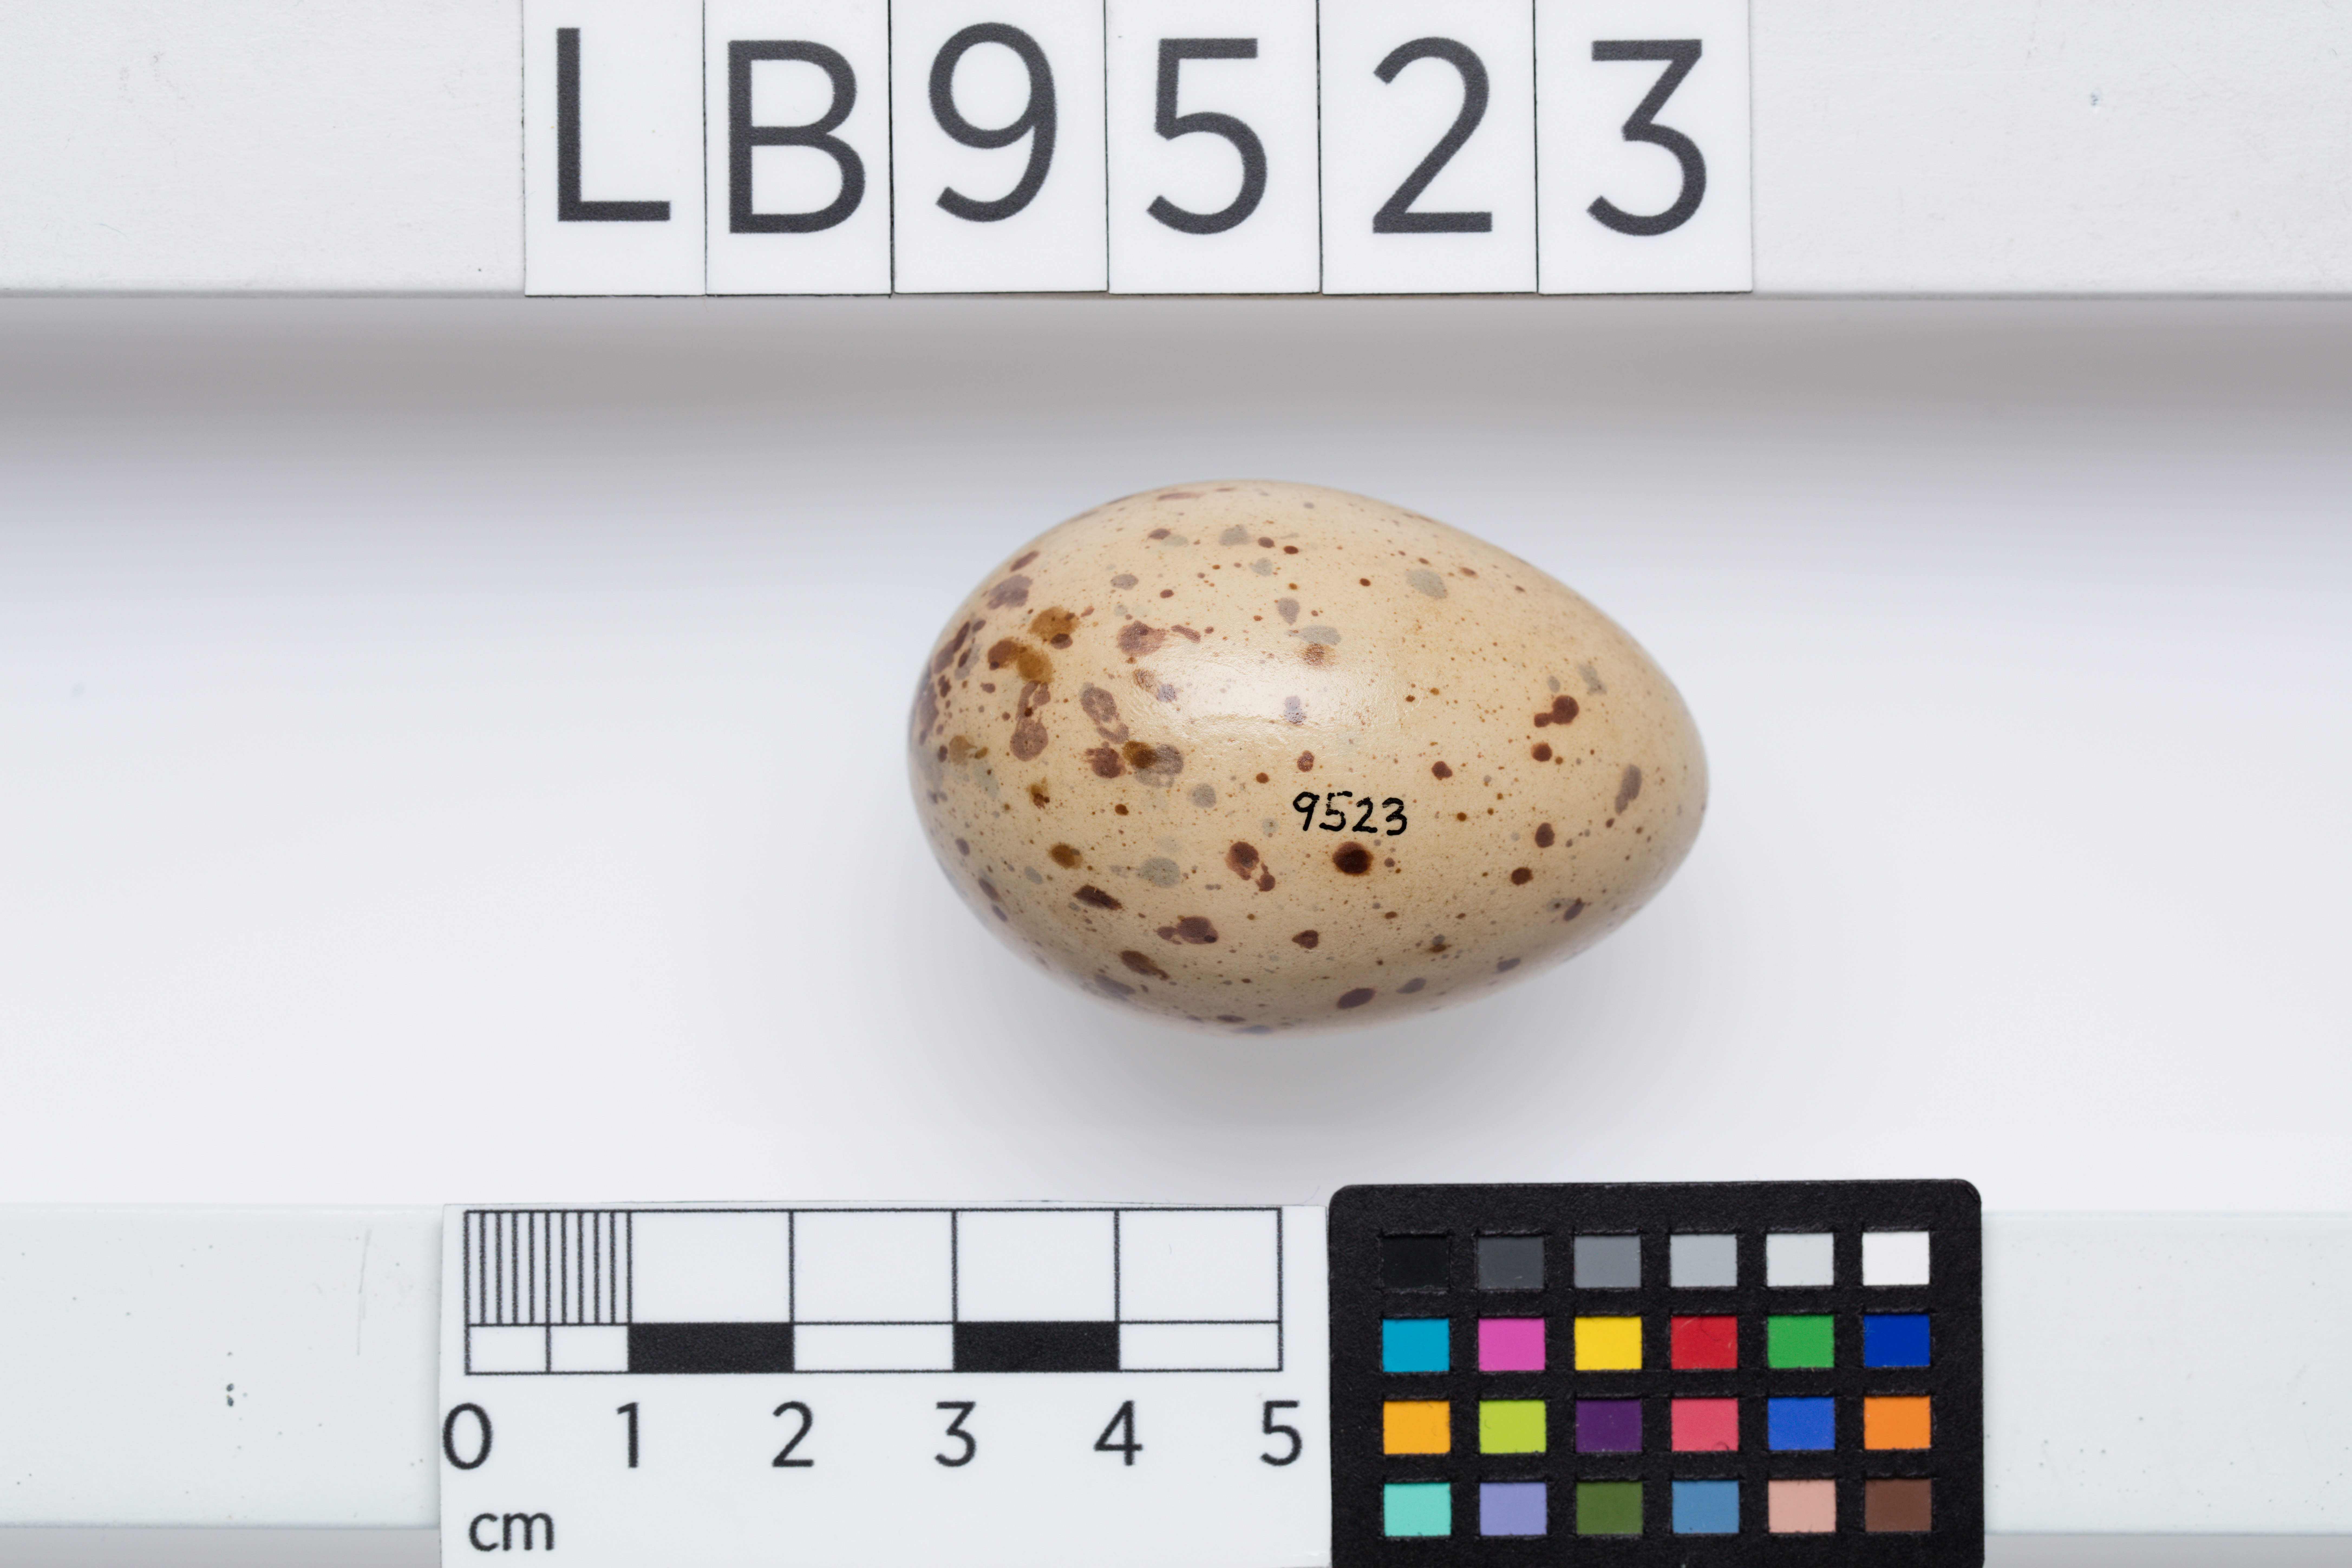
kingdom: Animalia
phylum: Chordata
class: Aves
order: Gruiformes
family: Rallidae
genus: Porphyrio
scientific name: Porphyrio melanotus
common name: Australasian swamphen
